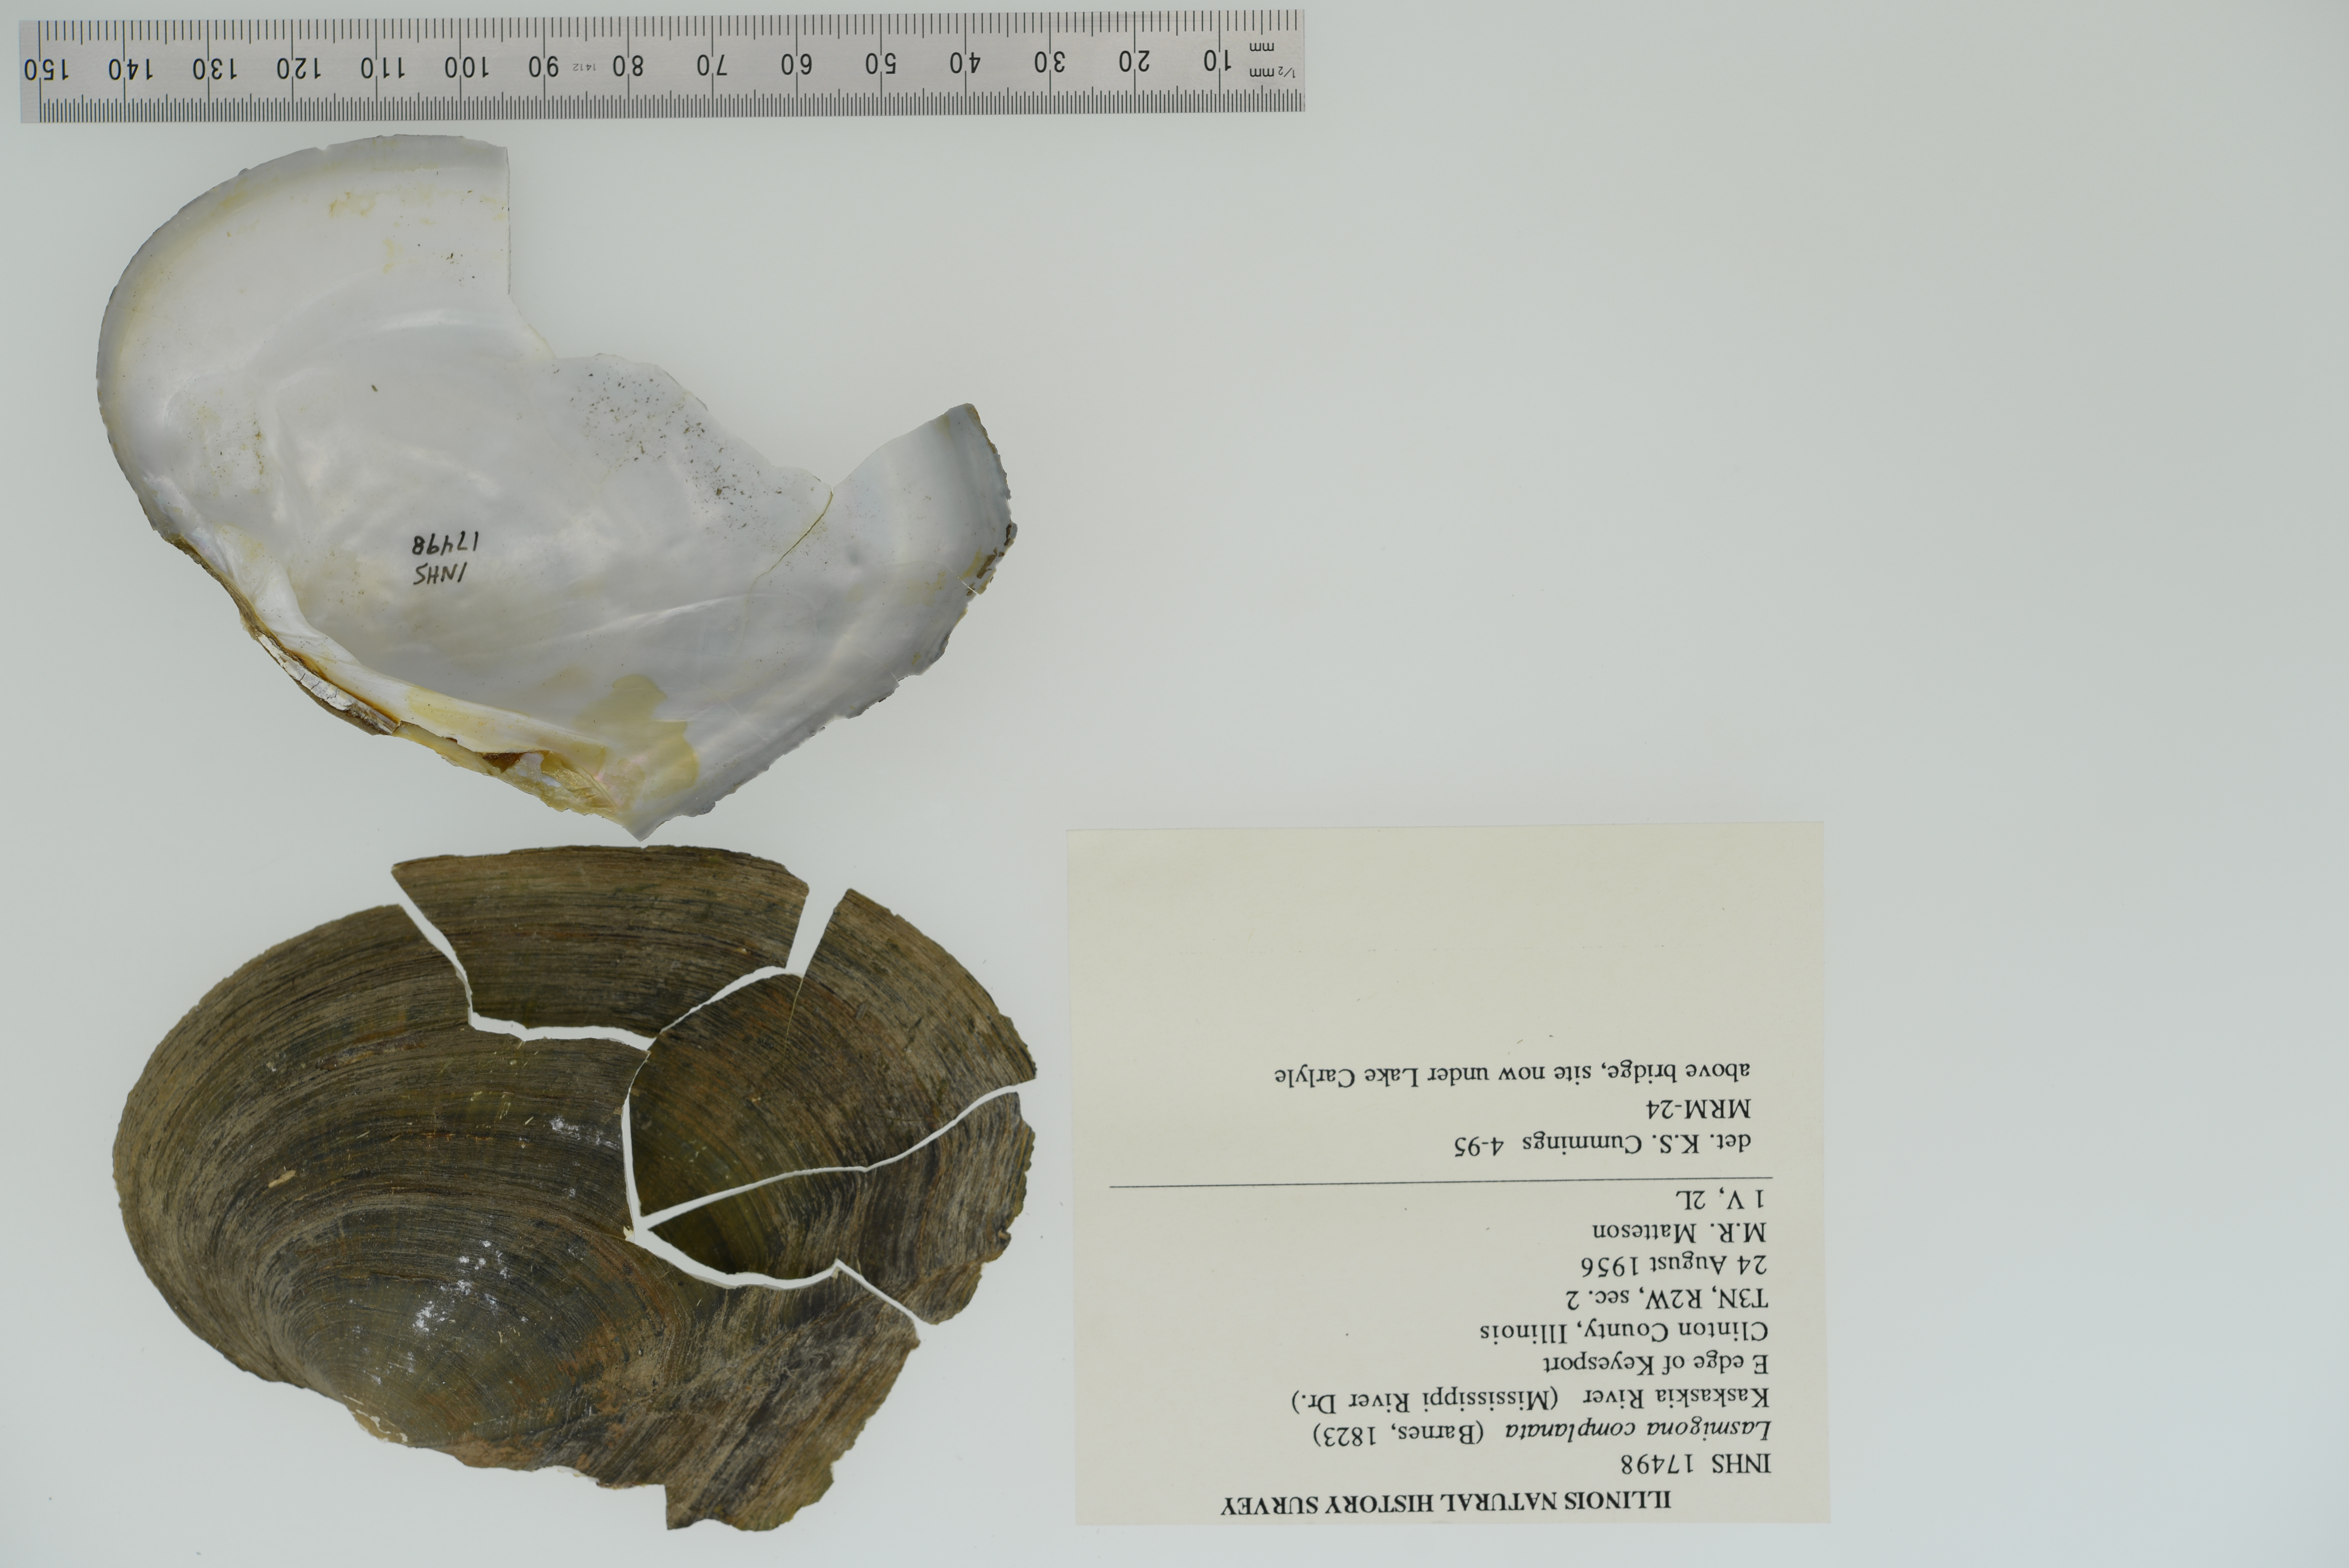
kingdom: Animalia
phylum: Mollusca
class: Bivalvia
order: Unionida
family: Unionidae
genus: Lasmigona
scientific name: Lasmigona complanata
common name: White heelsplitter
